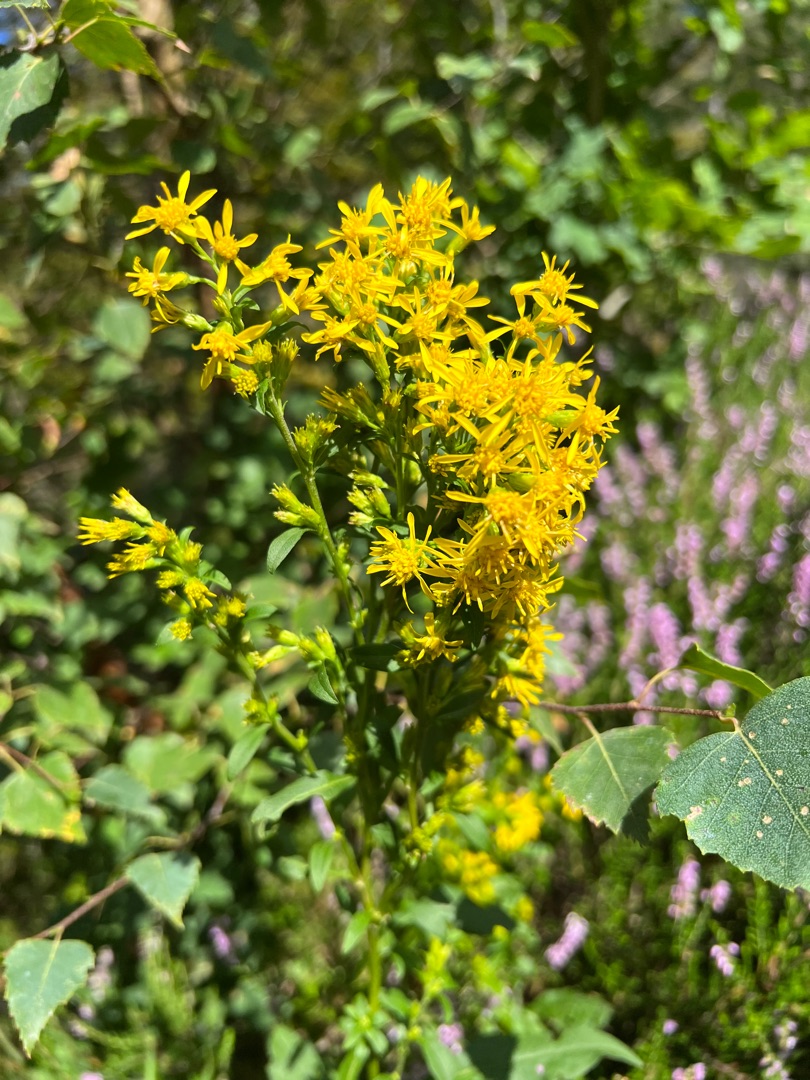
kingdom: Plantae
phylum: Tracheophyta
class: Magnoliopsida
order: Asterales
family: Asteraceae
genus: Solidago
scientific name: Solidago virgaurea
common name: Almindelig gyldenris
